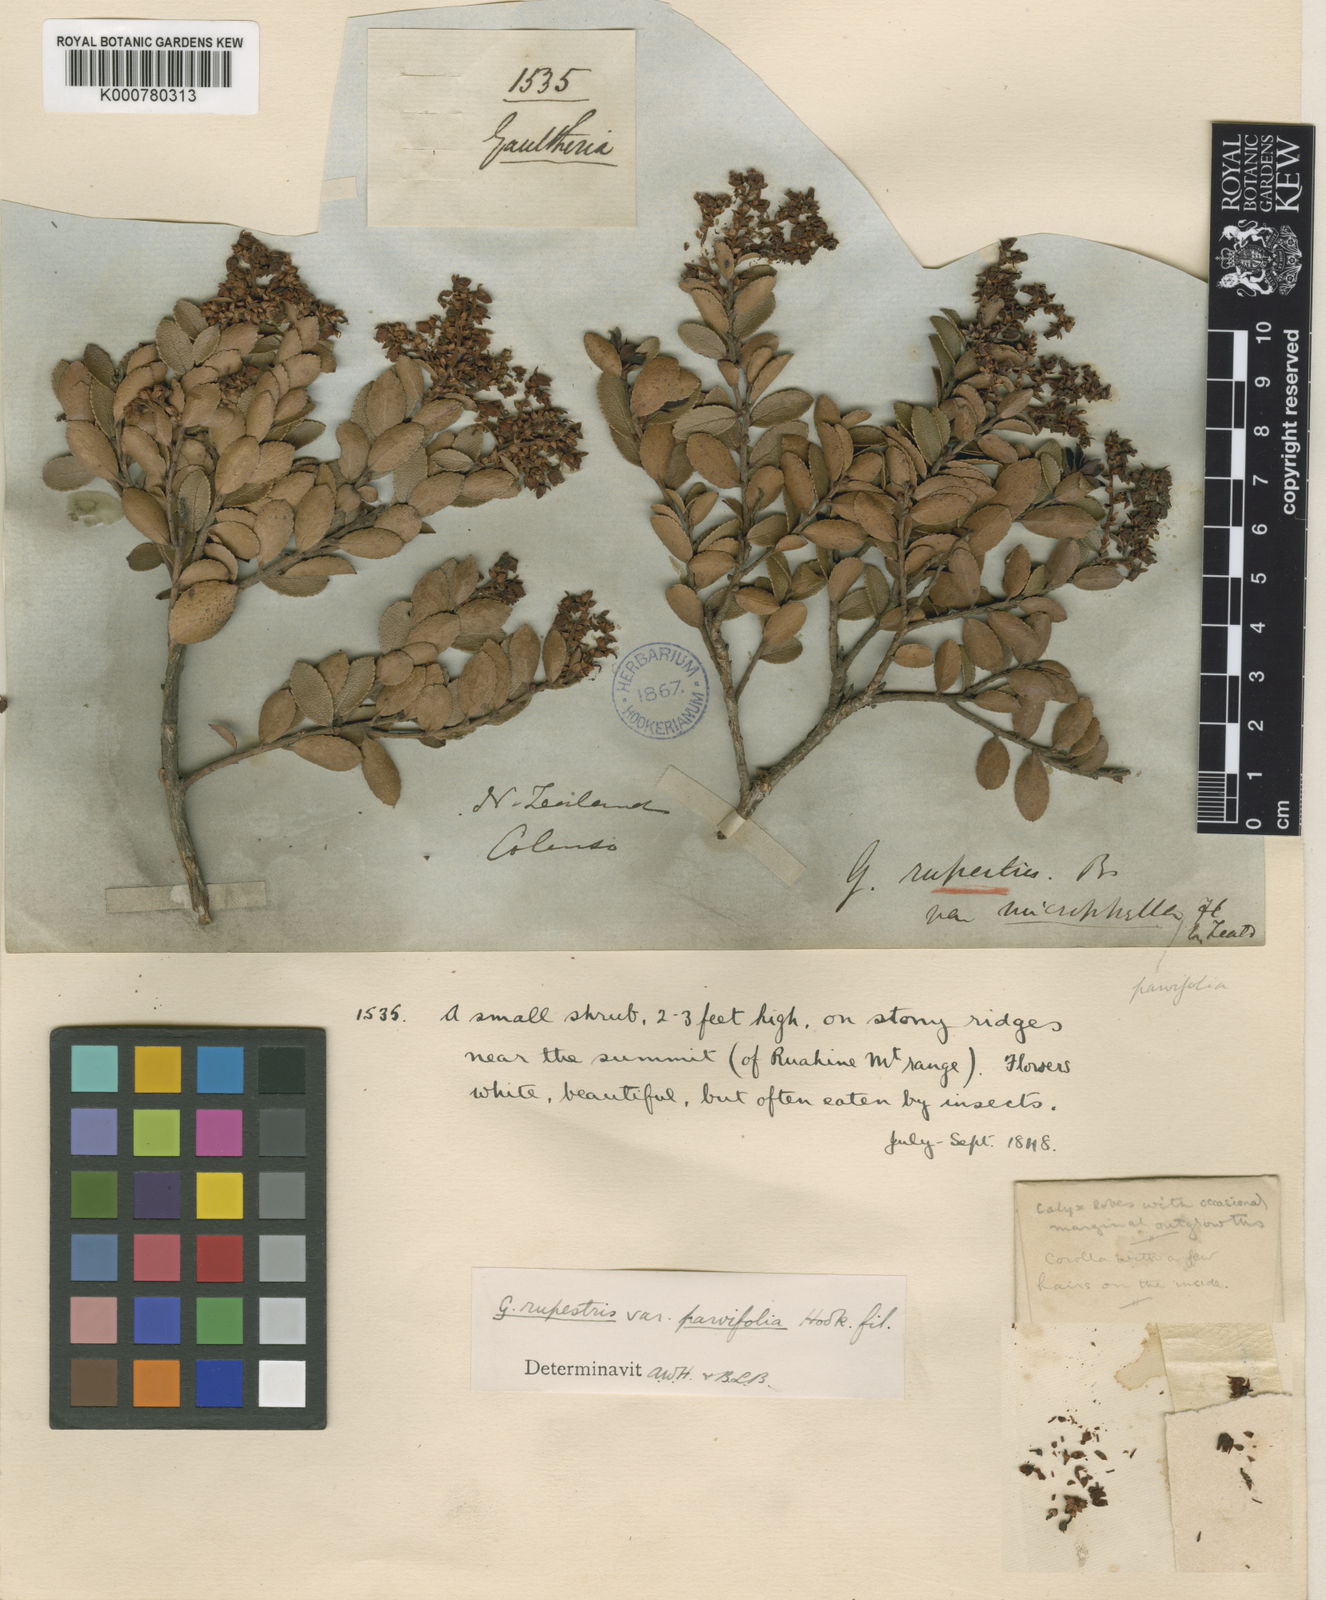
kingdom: Plantae
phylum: Tracheophyta
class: Magnoliopsida
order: Ericales
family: Ericaceae
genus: Gaultheria
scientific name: Gaultheria
